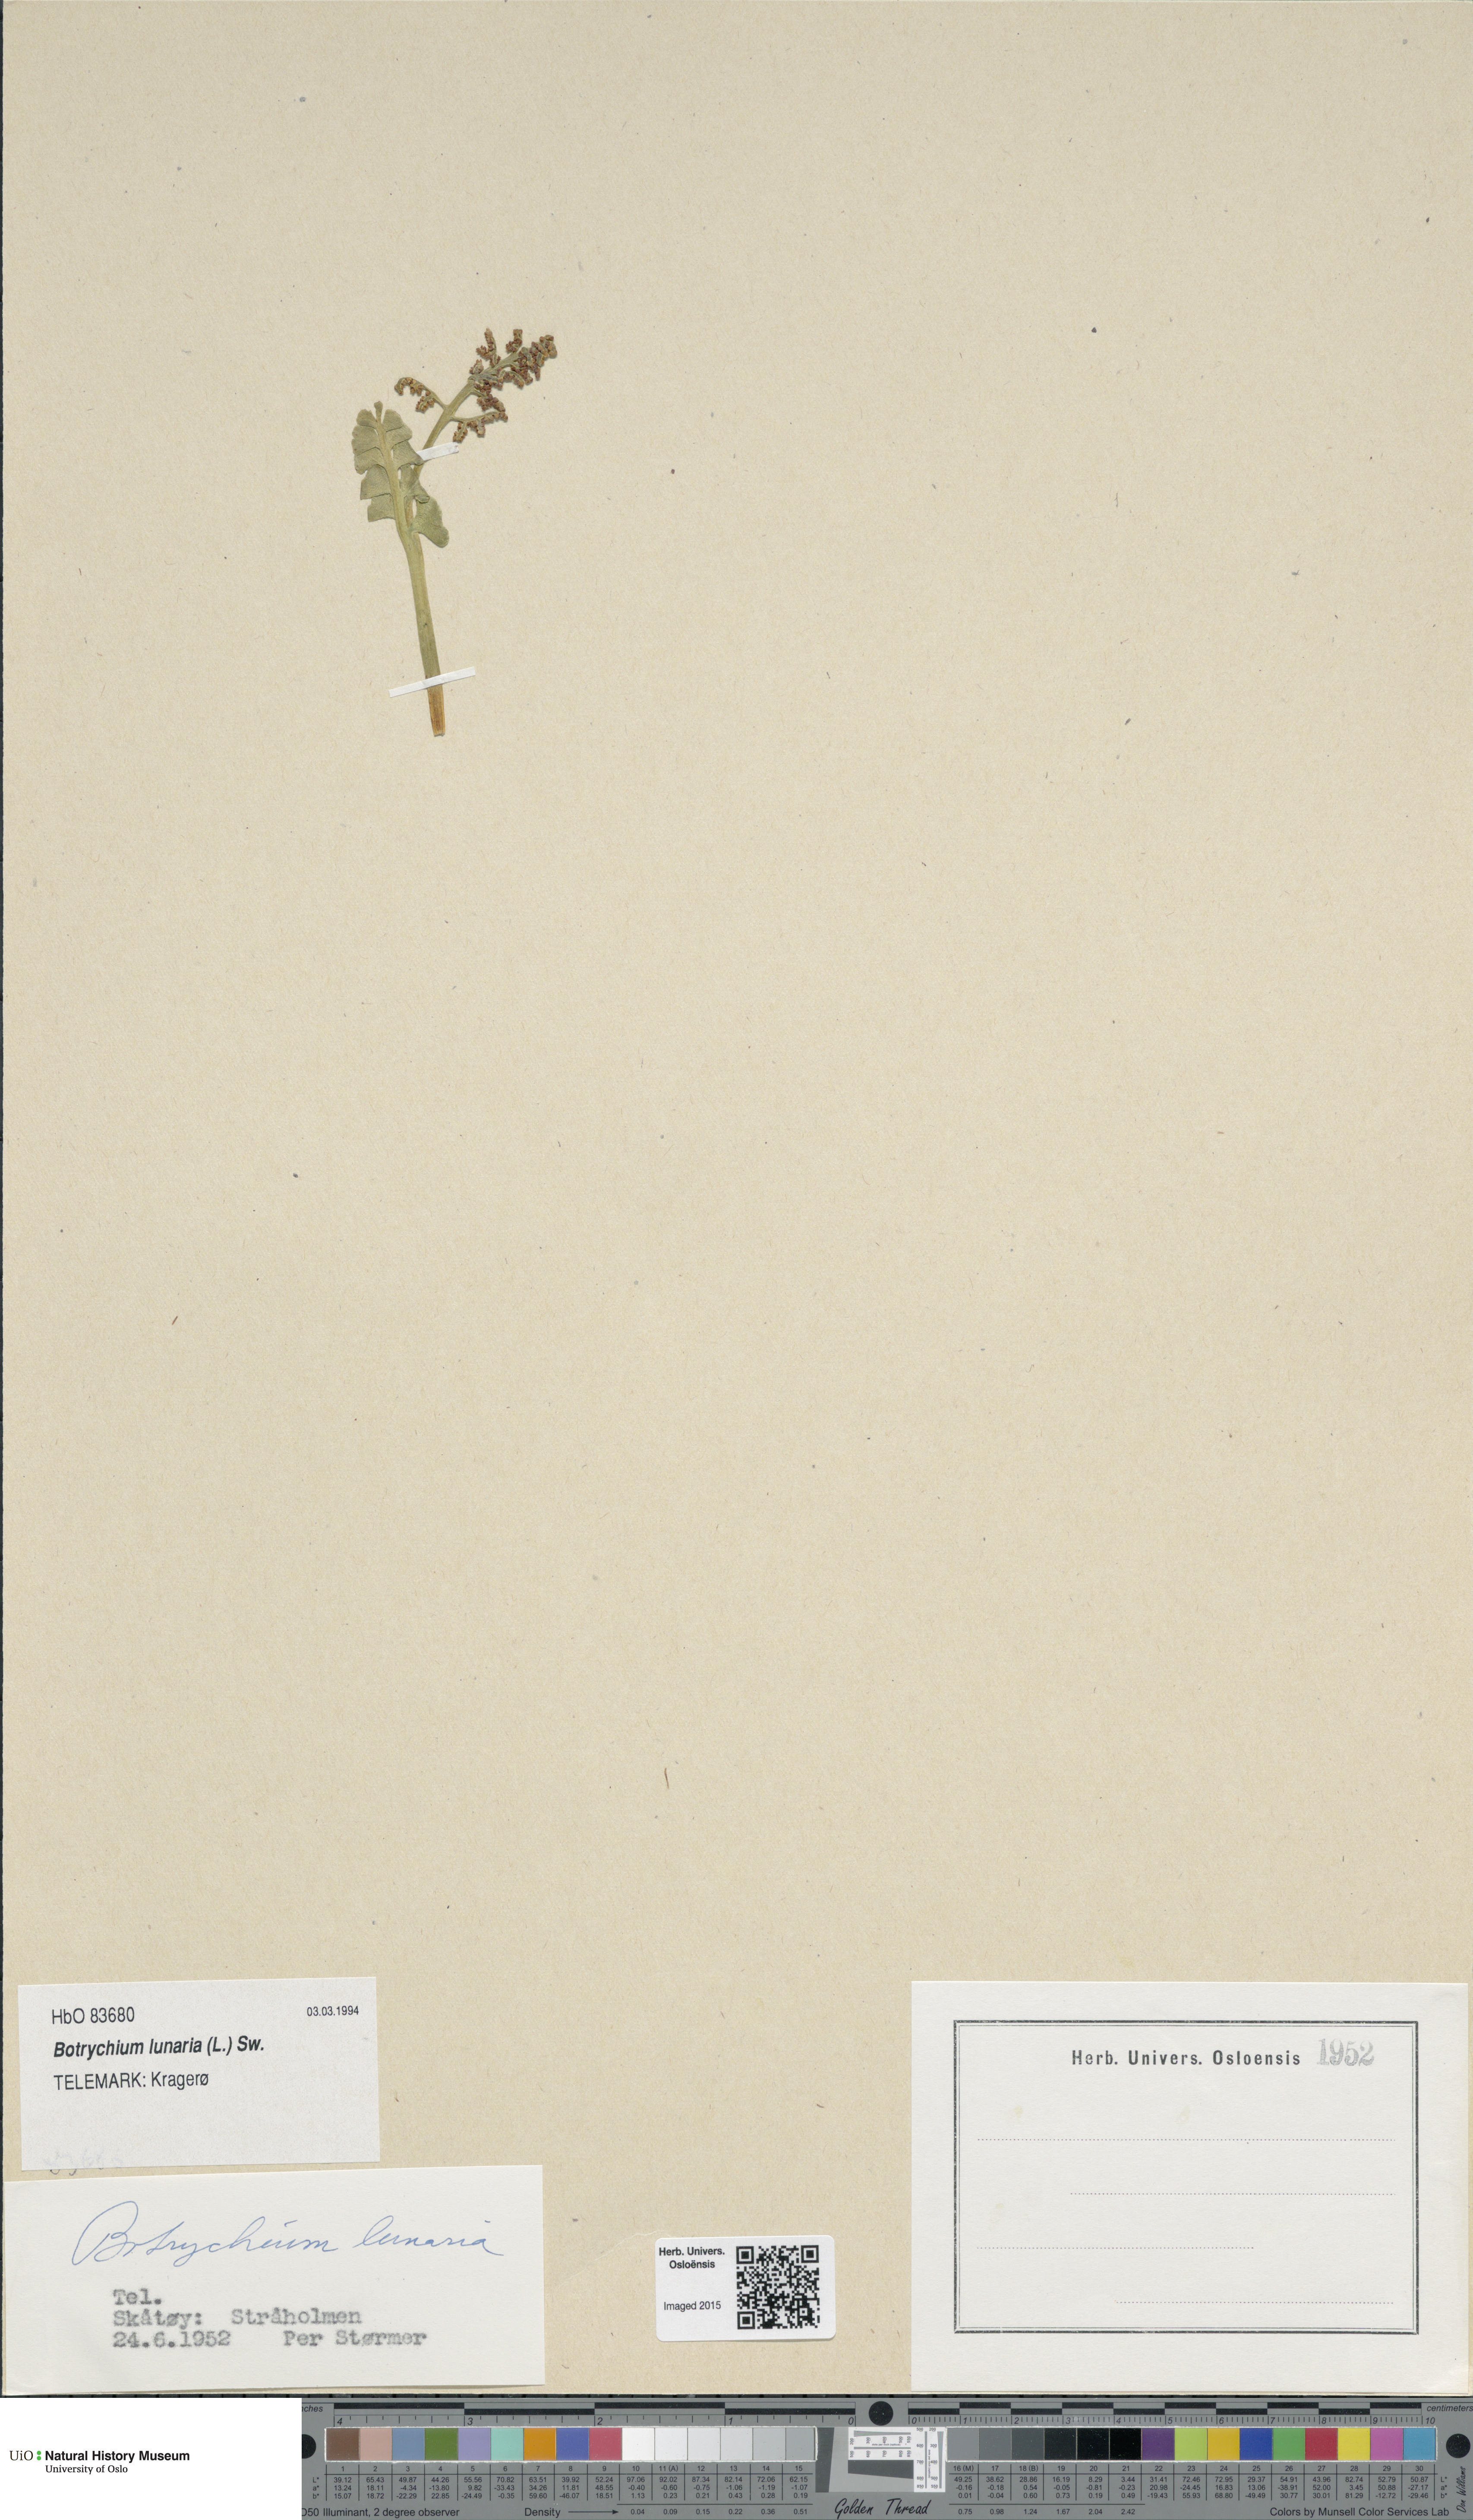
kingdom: Plantae
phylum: Tracheophyta
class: Polypodiopsida
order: Ophioglossales
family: Ophioglossaceae
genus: Botrychium
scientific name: Botrychium lunaria
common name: Moonwort
